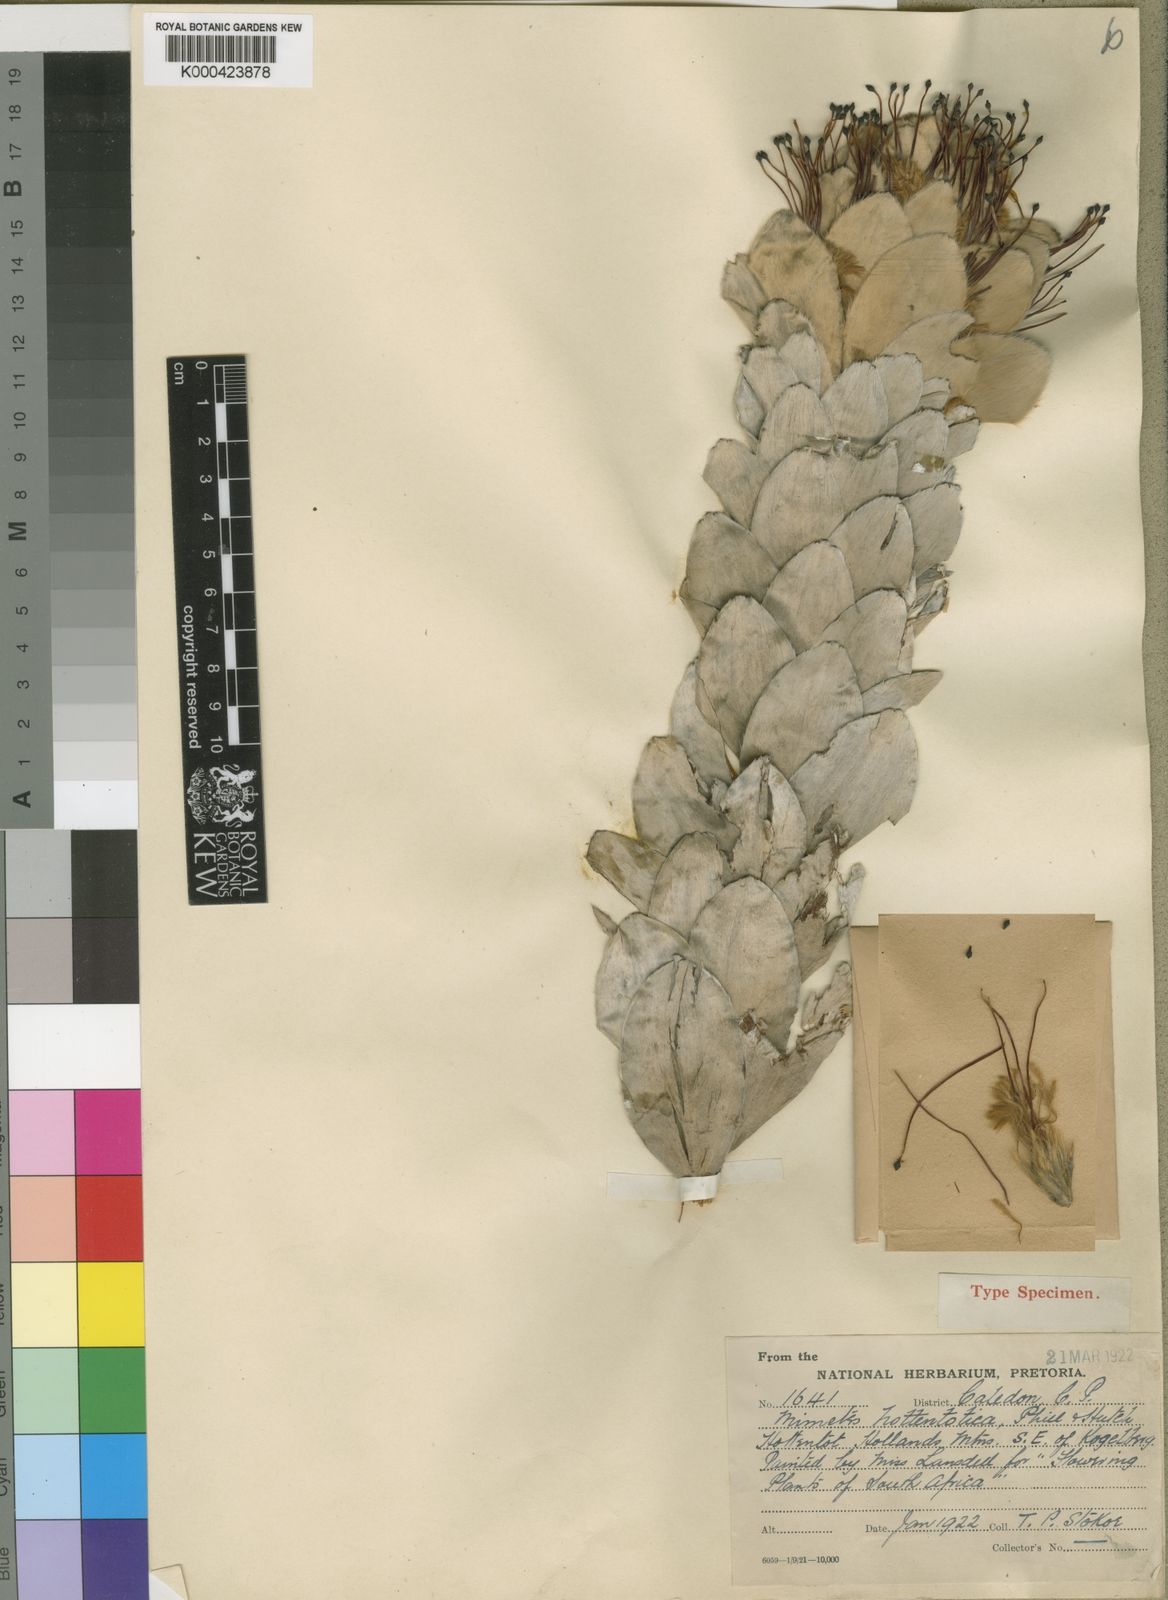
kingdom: Plantae
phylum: Tracheophyta
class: Magnoliopsida
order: Proteales
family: Proteaceae
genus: Mimetes
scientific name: Mimetes hottentoticus
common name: Matchstick pagoda
